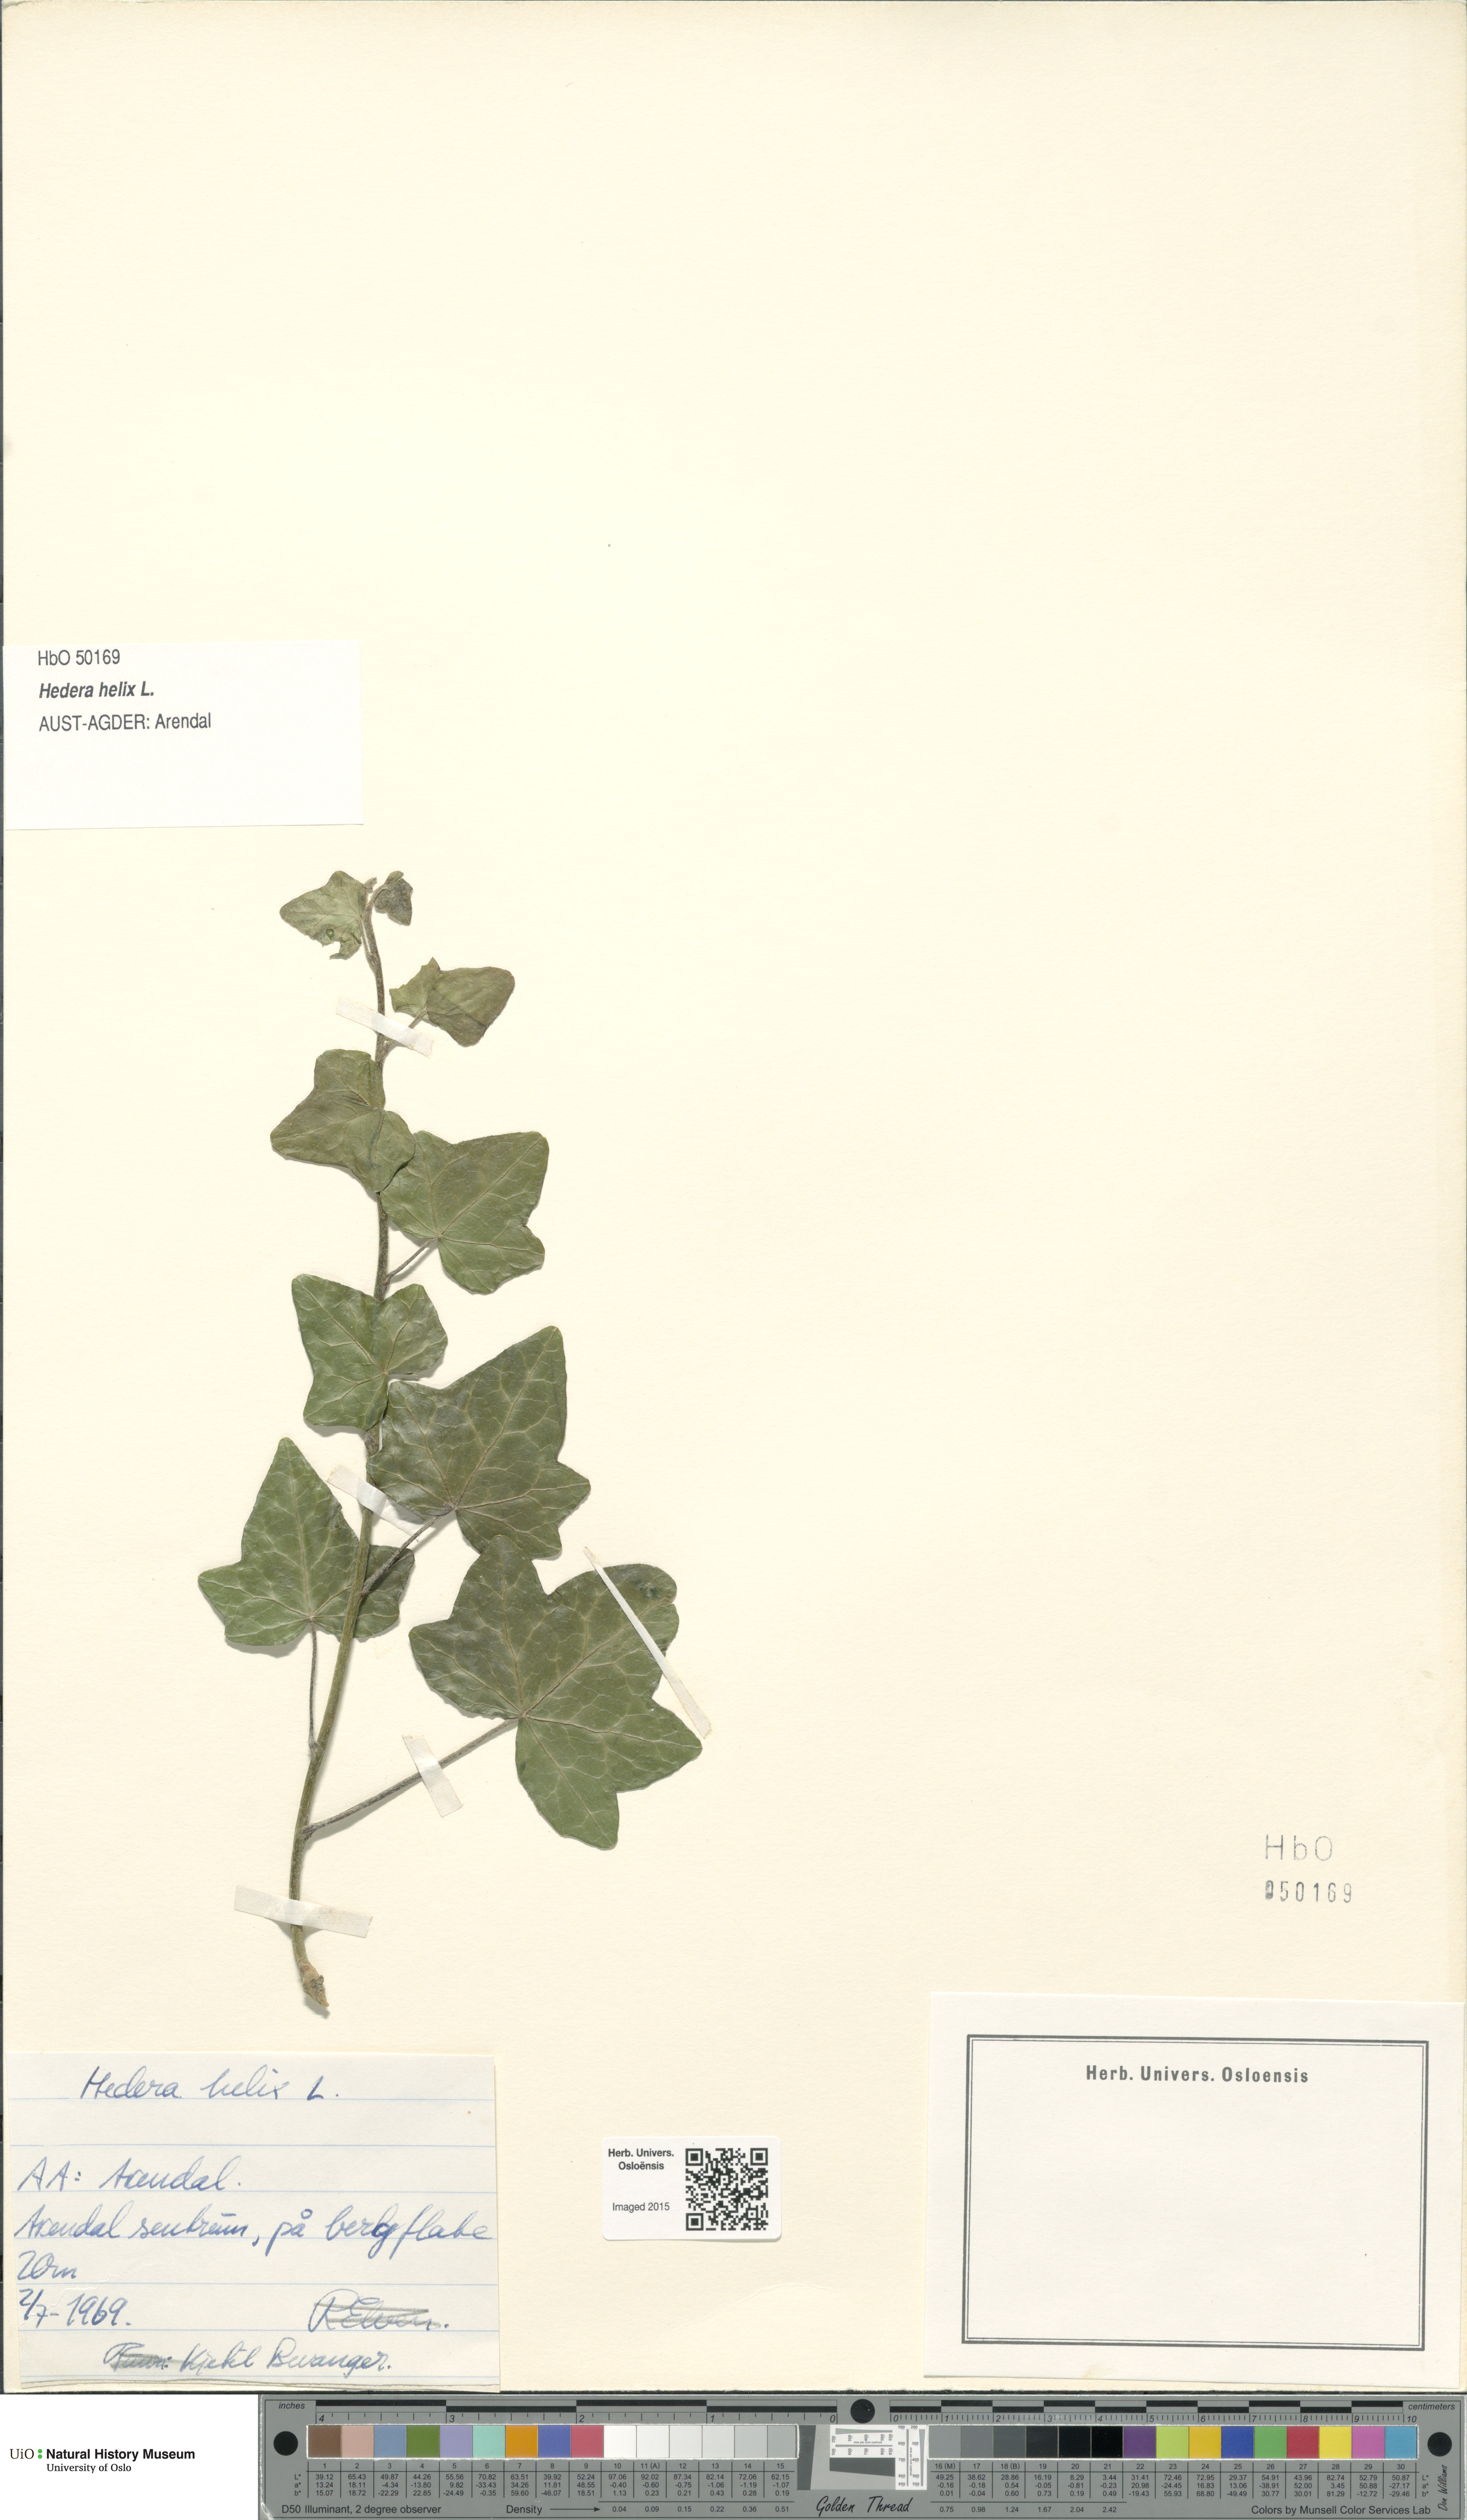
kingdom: Plantae
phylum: Tracheophyta
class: Magnoliopsida
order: Apiales
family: Araliaceae
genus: Hedera
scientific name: Hedera helix
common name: Ivy
